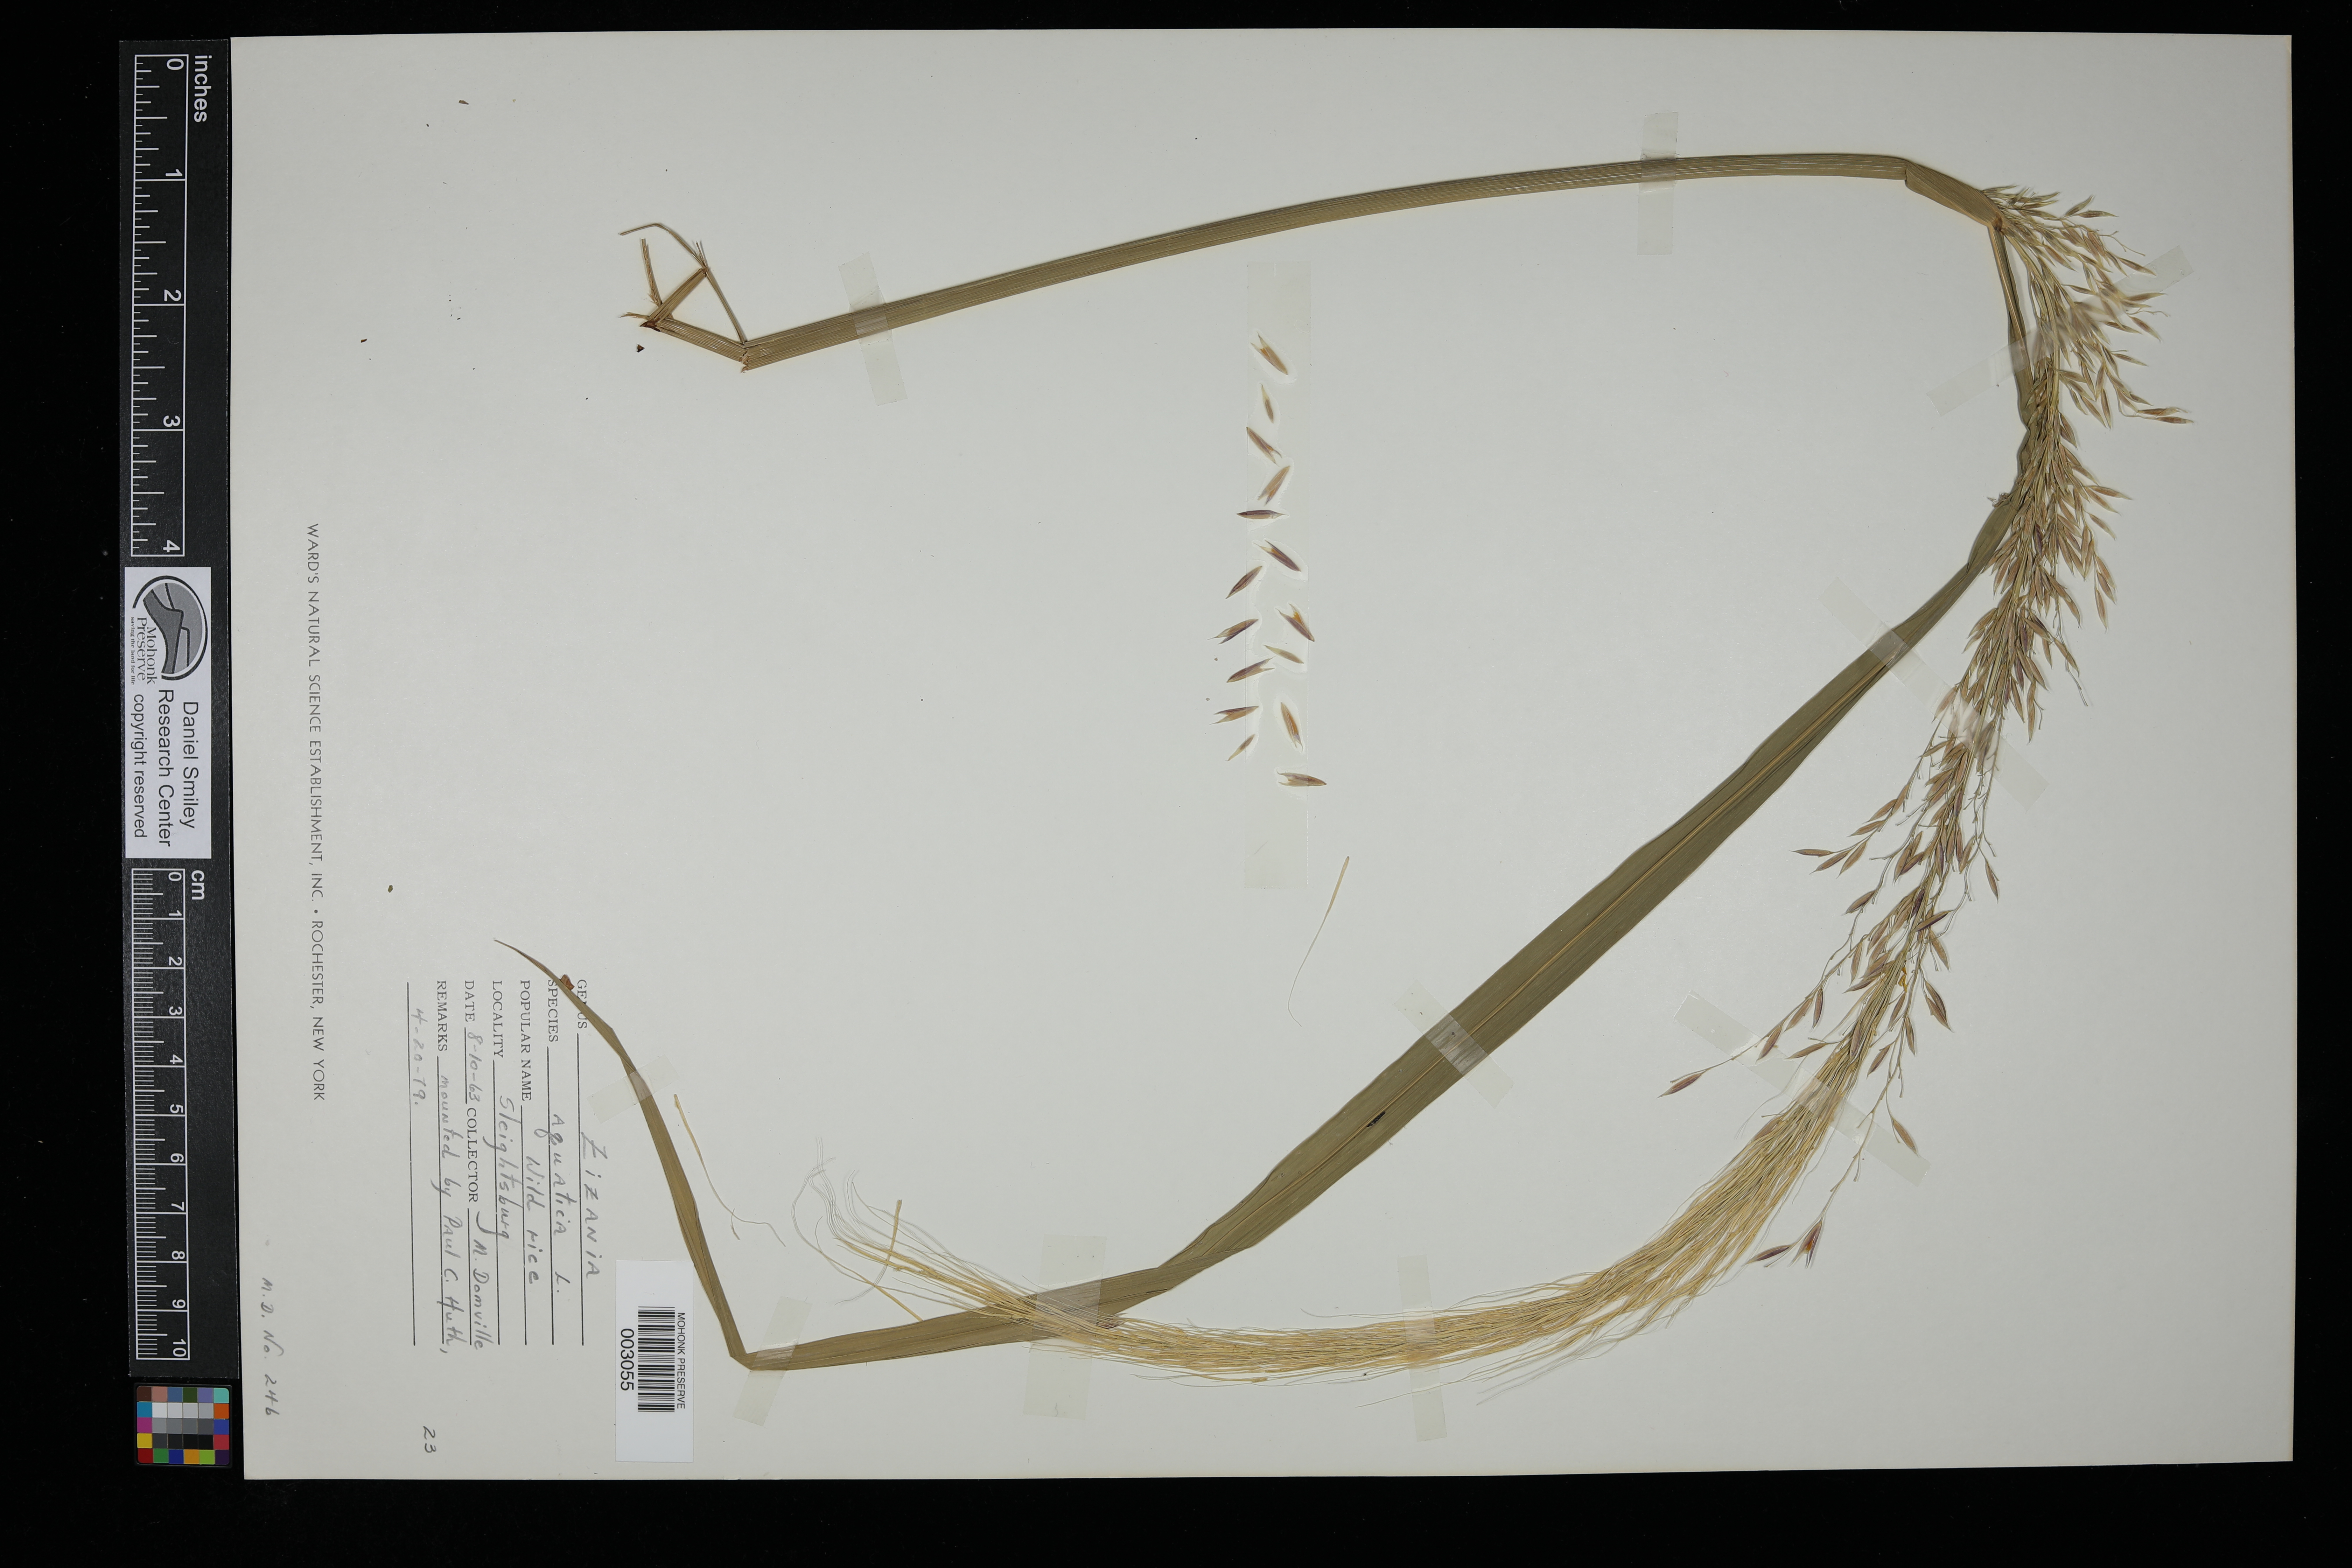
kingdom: Plantae
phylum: Tracheophyta
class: Liliopsida
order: Poales
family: Poaceae
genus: Zizania
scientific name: Zizania aquatica
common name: Annual wildrice
